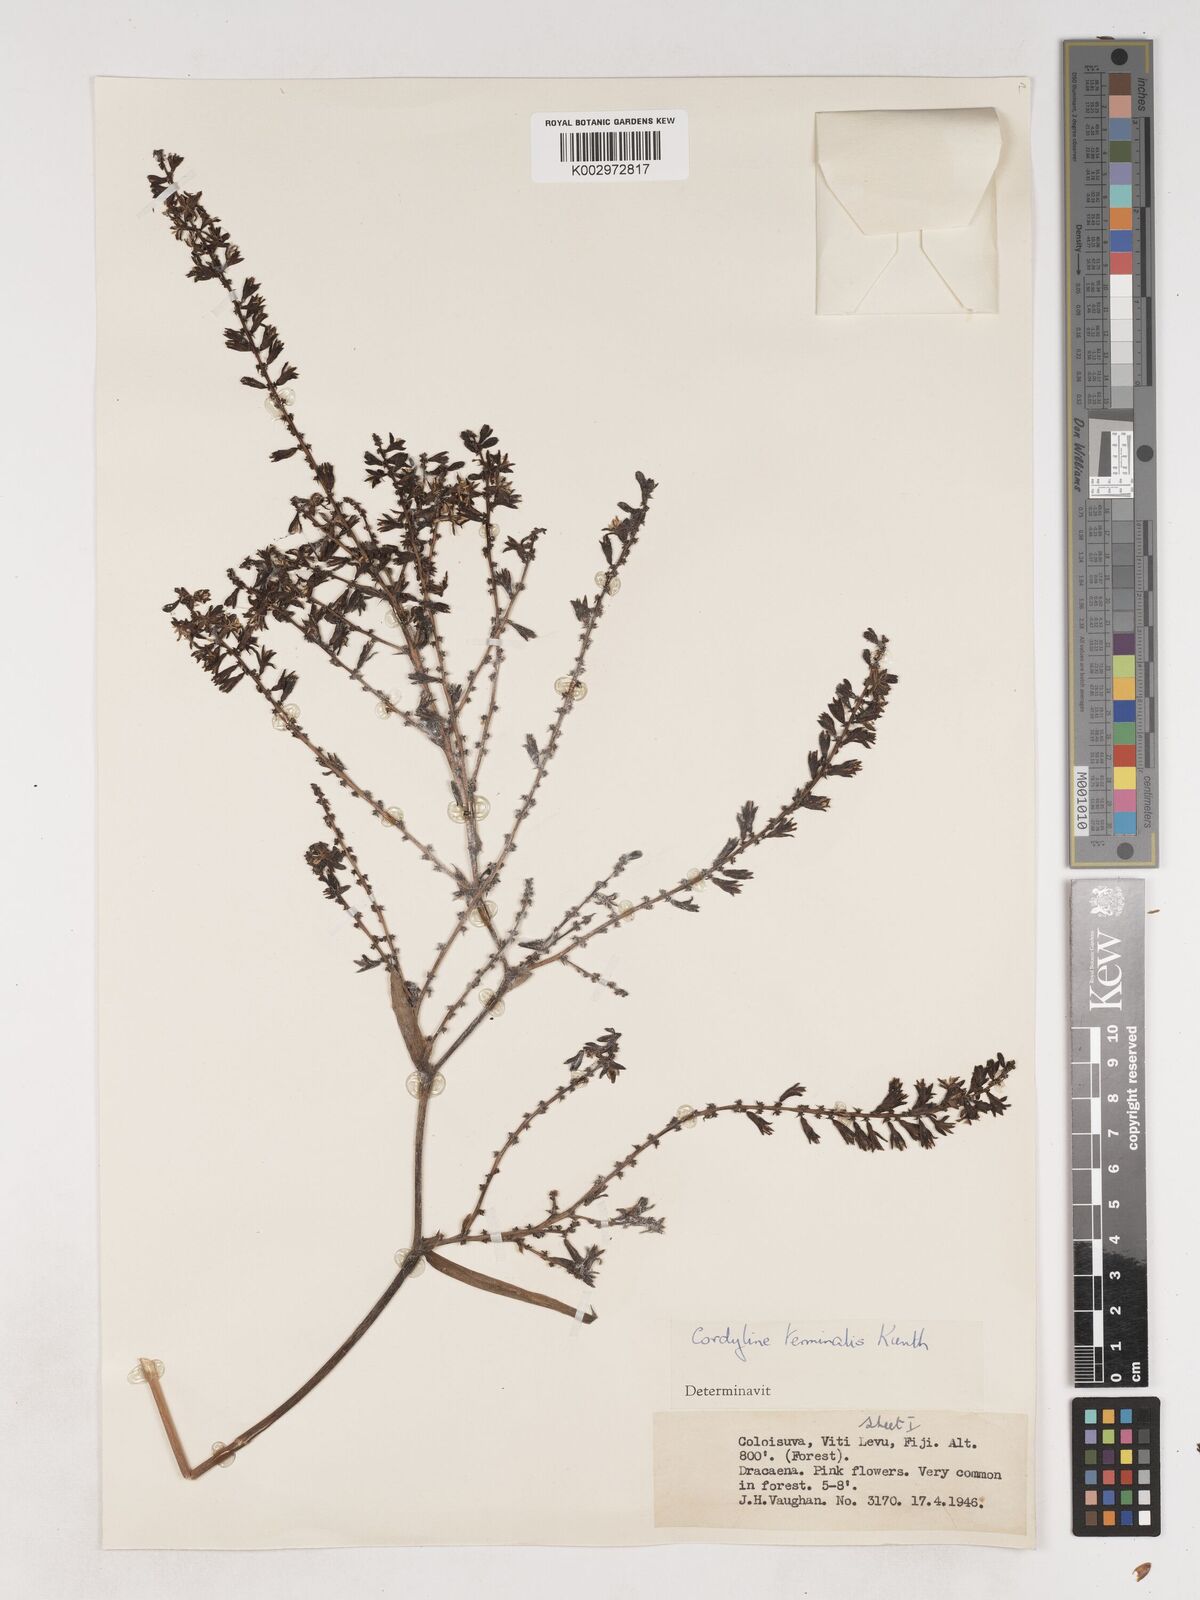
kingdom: Plantae
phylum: Tracheophyta
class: Liliopsida
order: Asparagales
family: Asparagaceae
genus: Cordyline
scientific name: Cordyline fruticosa
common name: Good-luck-plant
